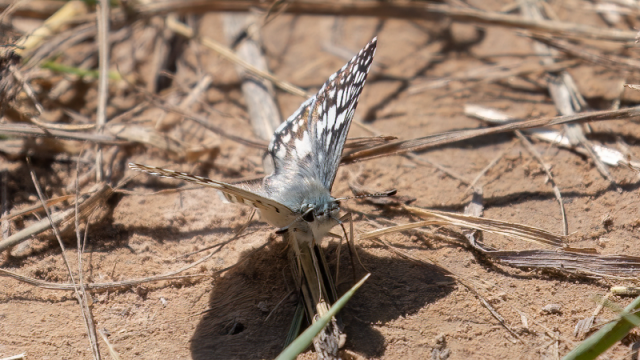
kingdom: Animalia
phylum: Arthropoda
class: Insecta
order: Lepidoptera
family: Hesperiidae
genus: Pyrgus
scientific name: Pyrgus communis
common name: Common Checkered-Skipper
